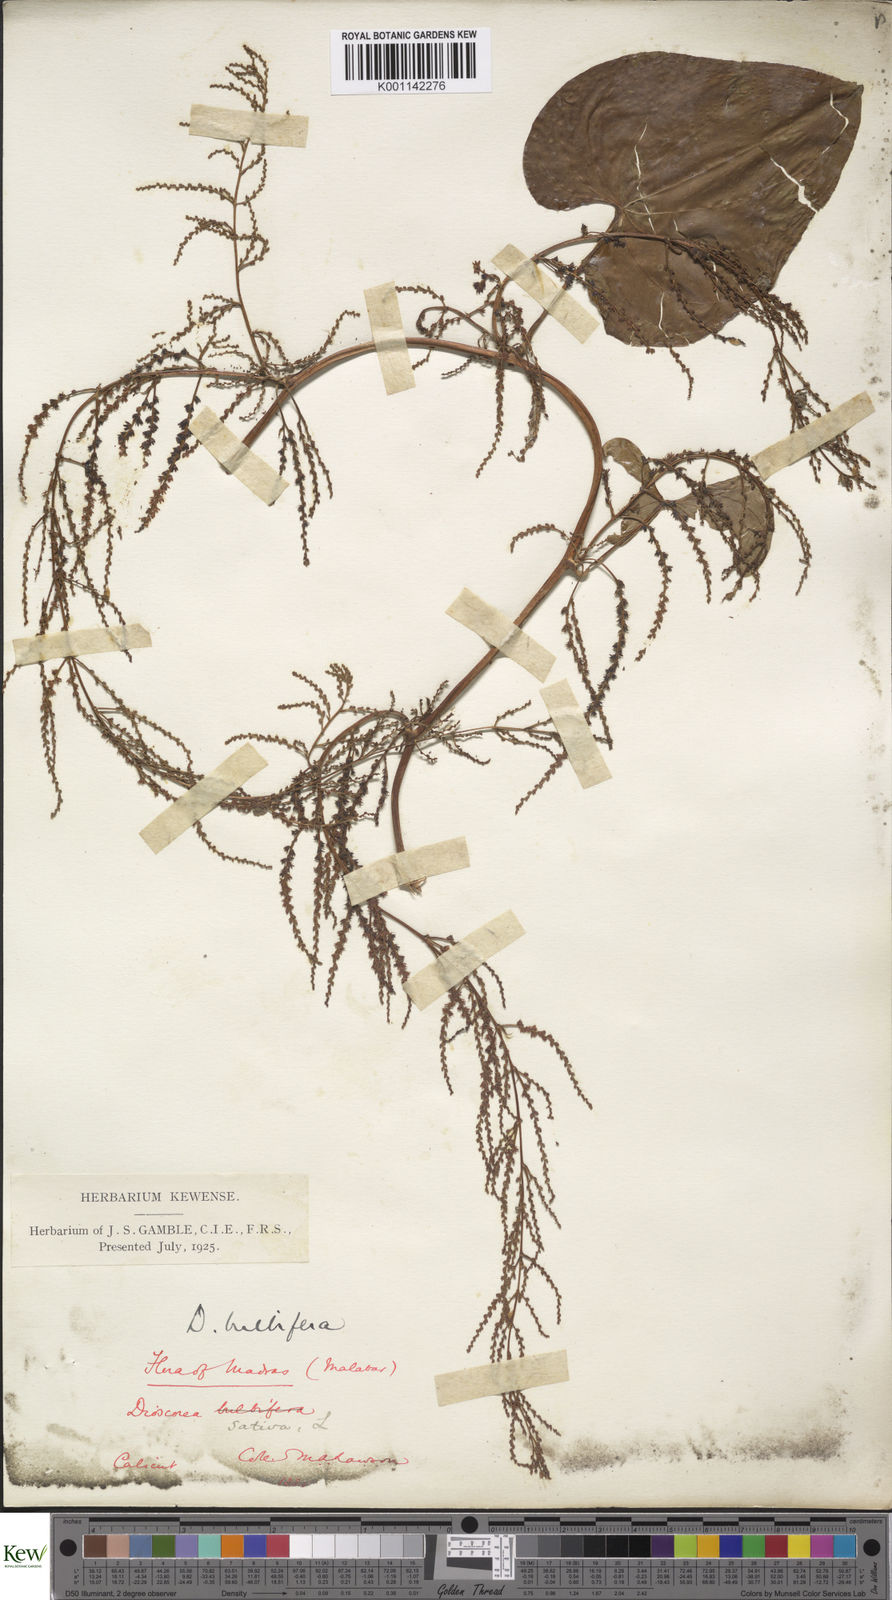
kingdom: Plantae
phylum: Tracheophyta
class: Liliopsida
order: Dioscoreales
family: Dioscoreaceae
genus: Dioscorea
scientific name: Dioscorea bulbifera
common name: Air yam
